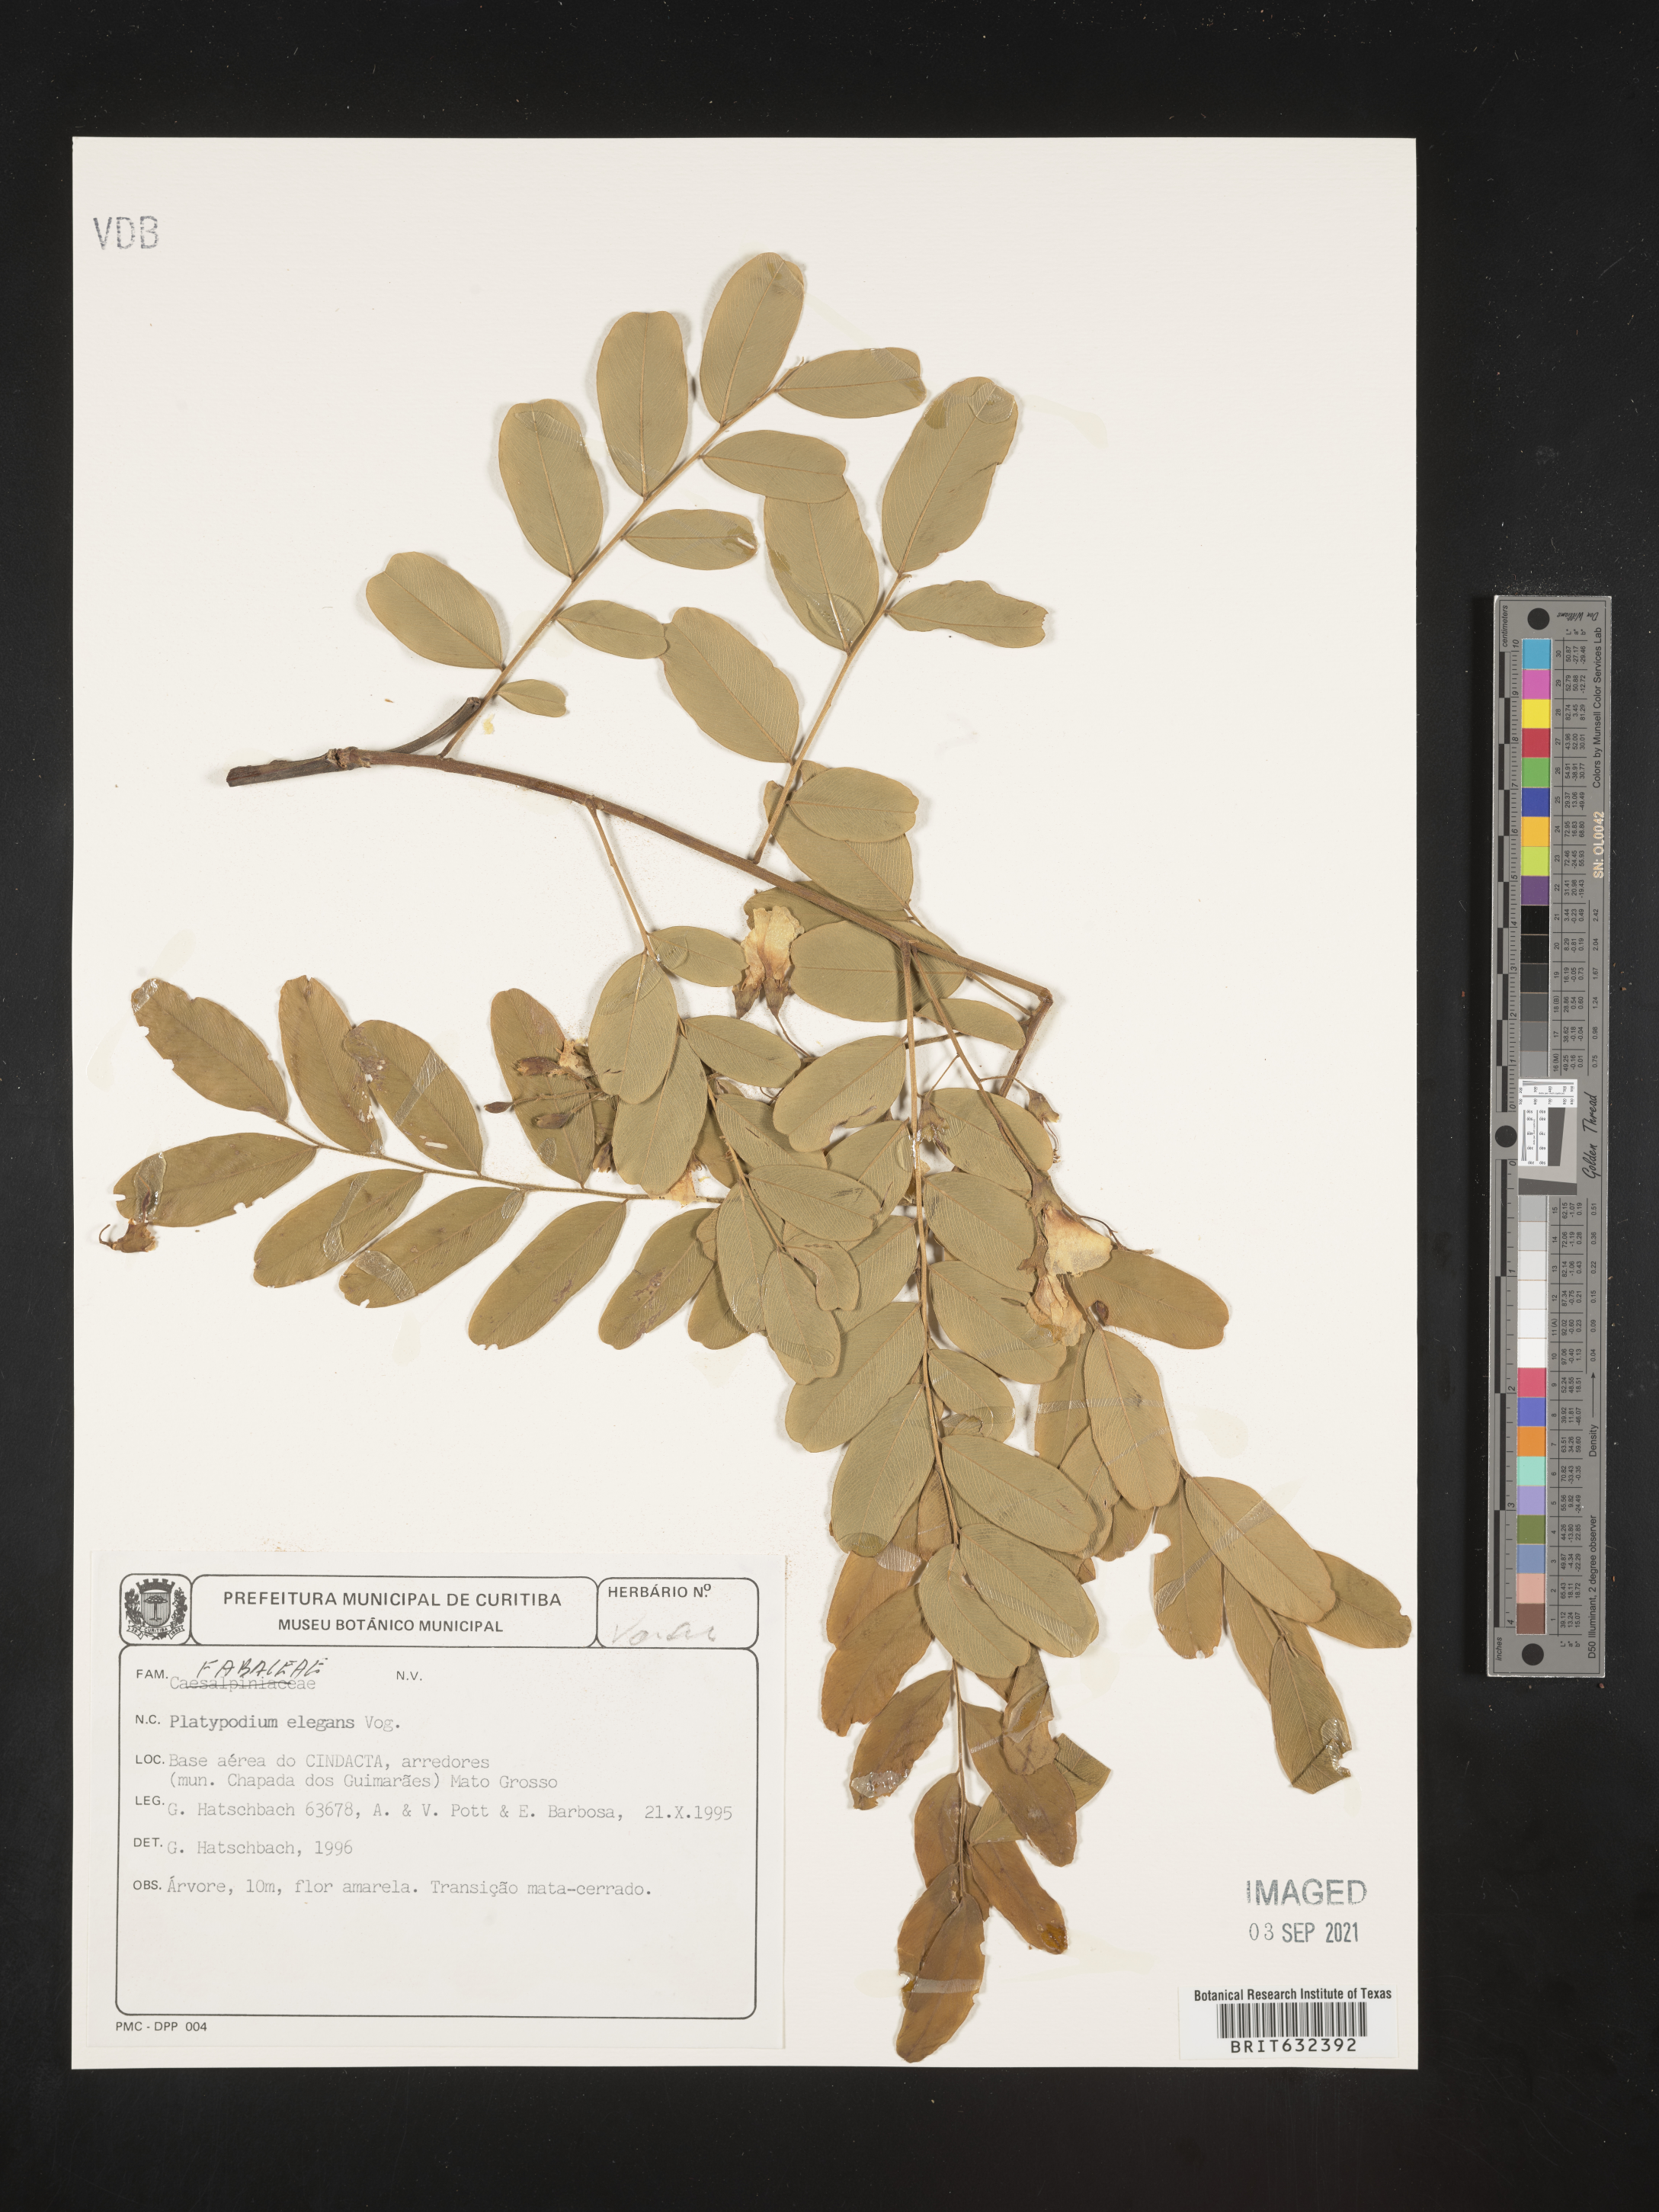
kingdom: Plantae
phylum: Tracheophyta
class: Magnoliopsida
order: Fabales
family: Fabaceae
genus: Platypodium
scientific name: Platypodium
